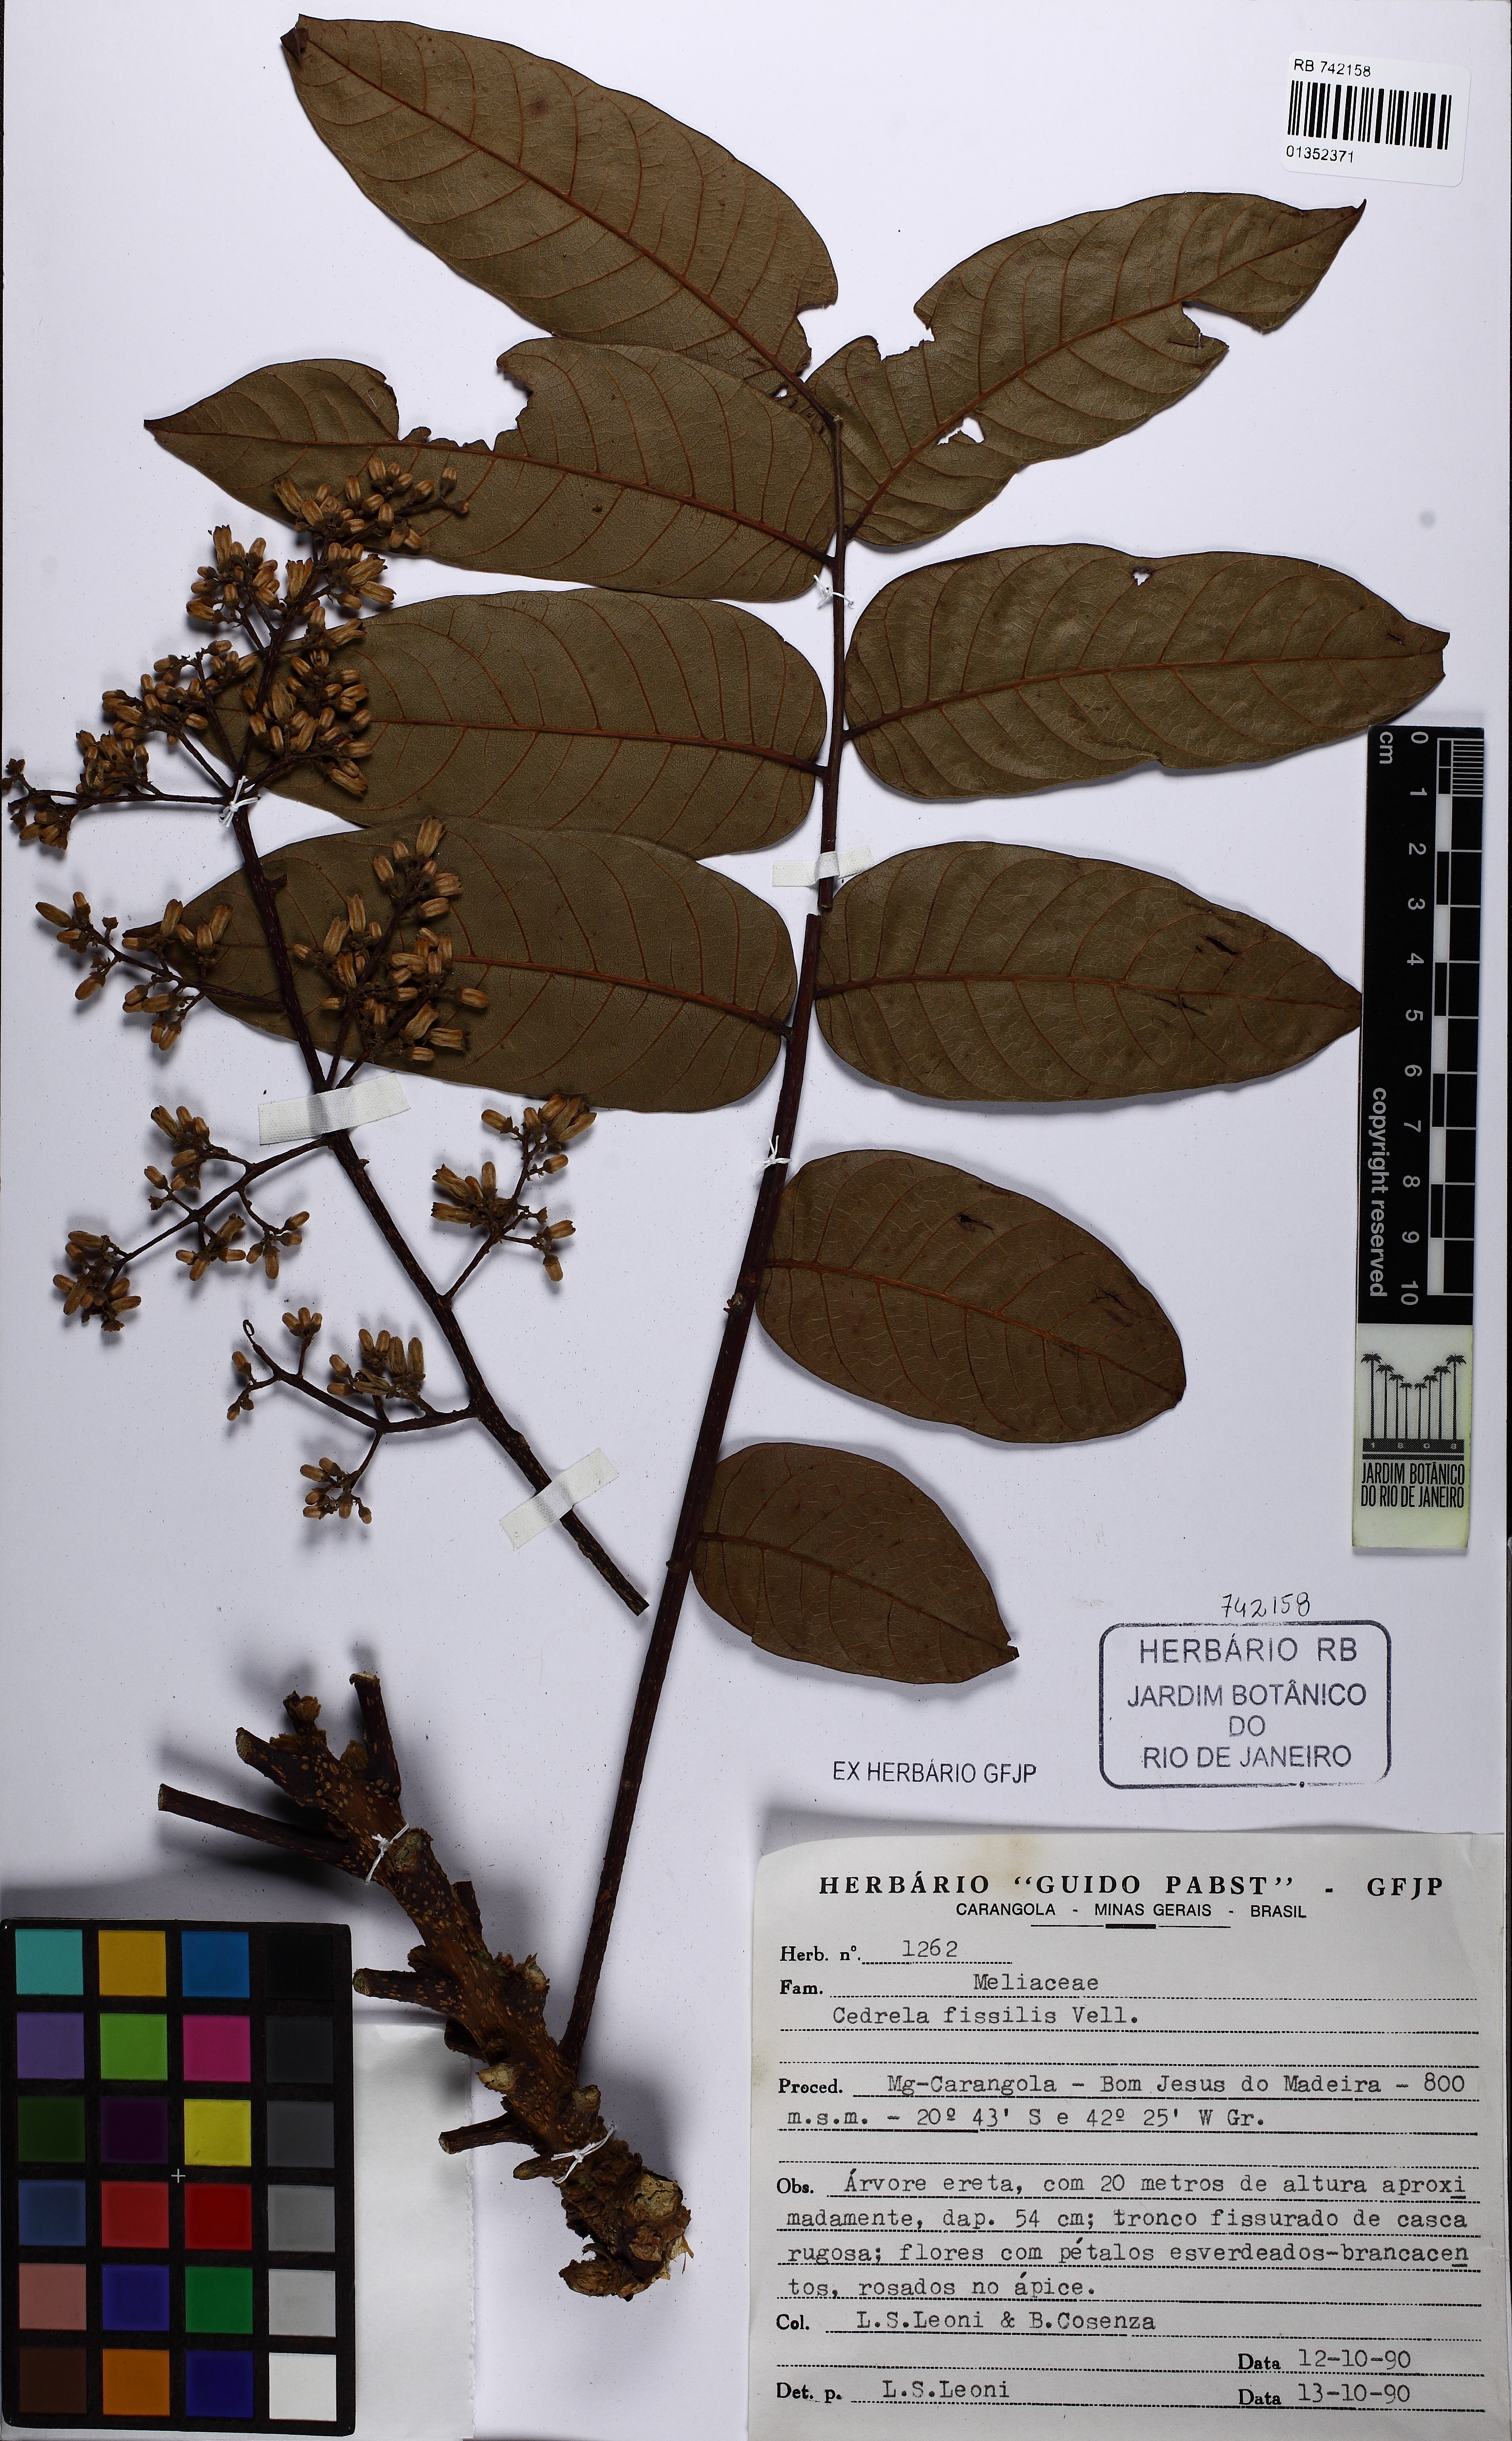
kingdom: Plantae
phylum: Tracheophyta
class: Magnoliopsida
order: Sapindales
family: Meliaceae
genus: Cedrela
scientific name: Cedrela fissilis
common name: Argentine cedar
